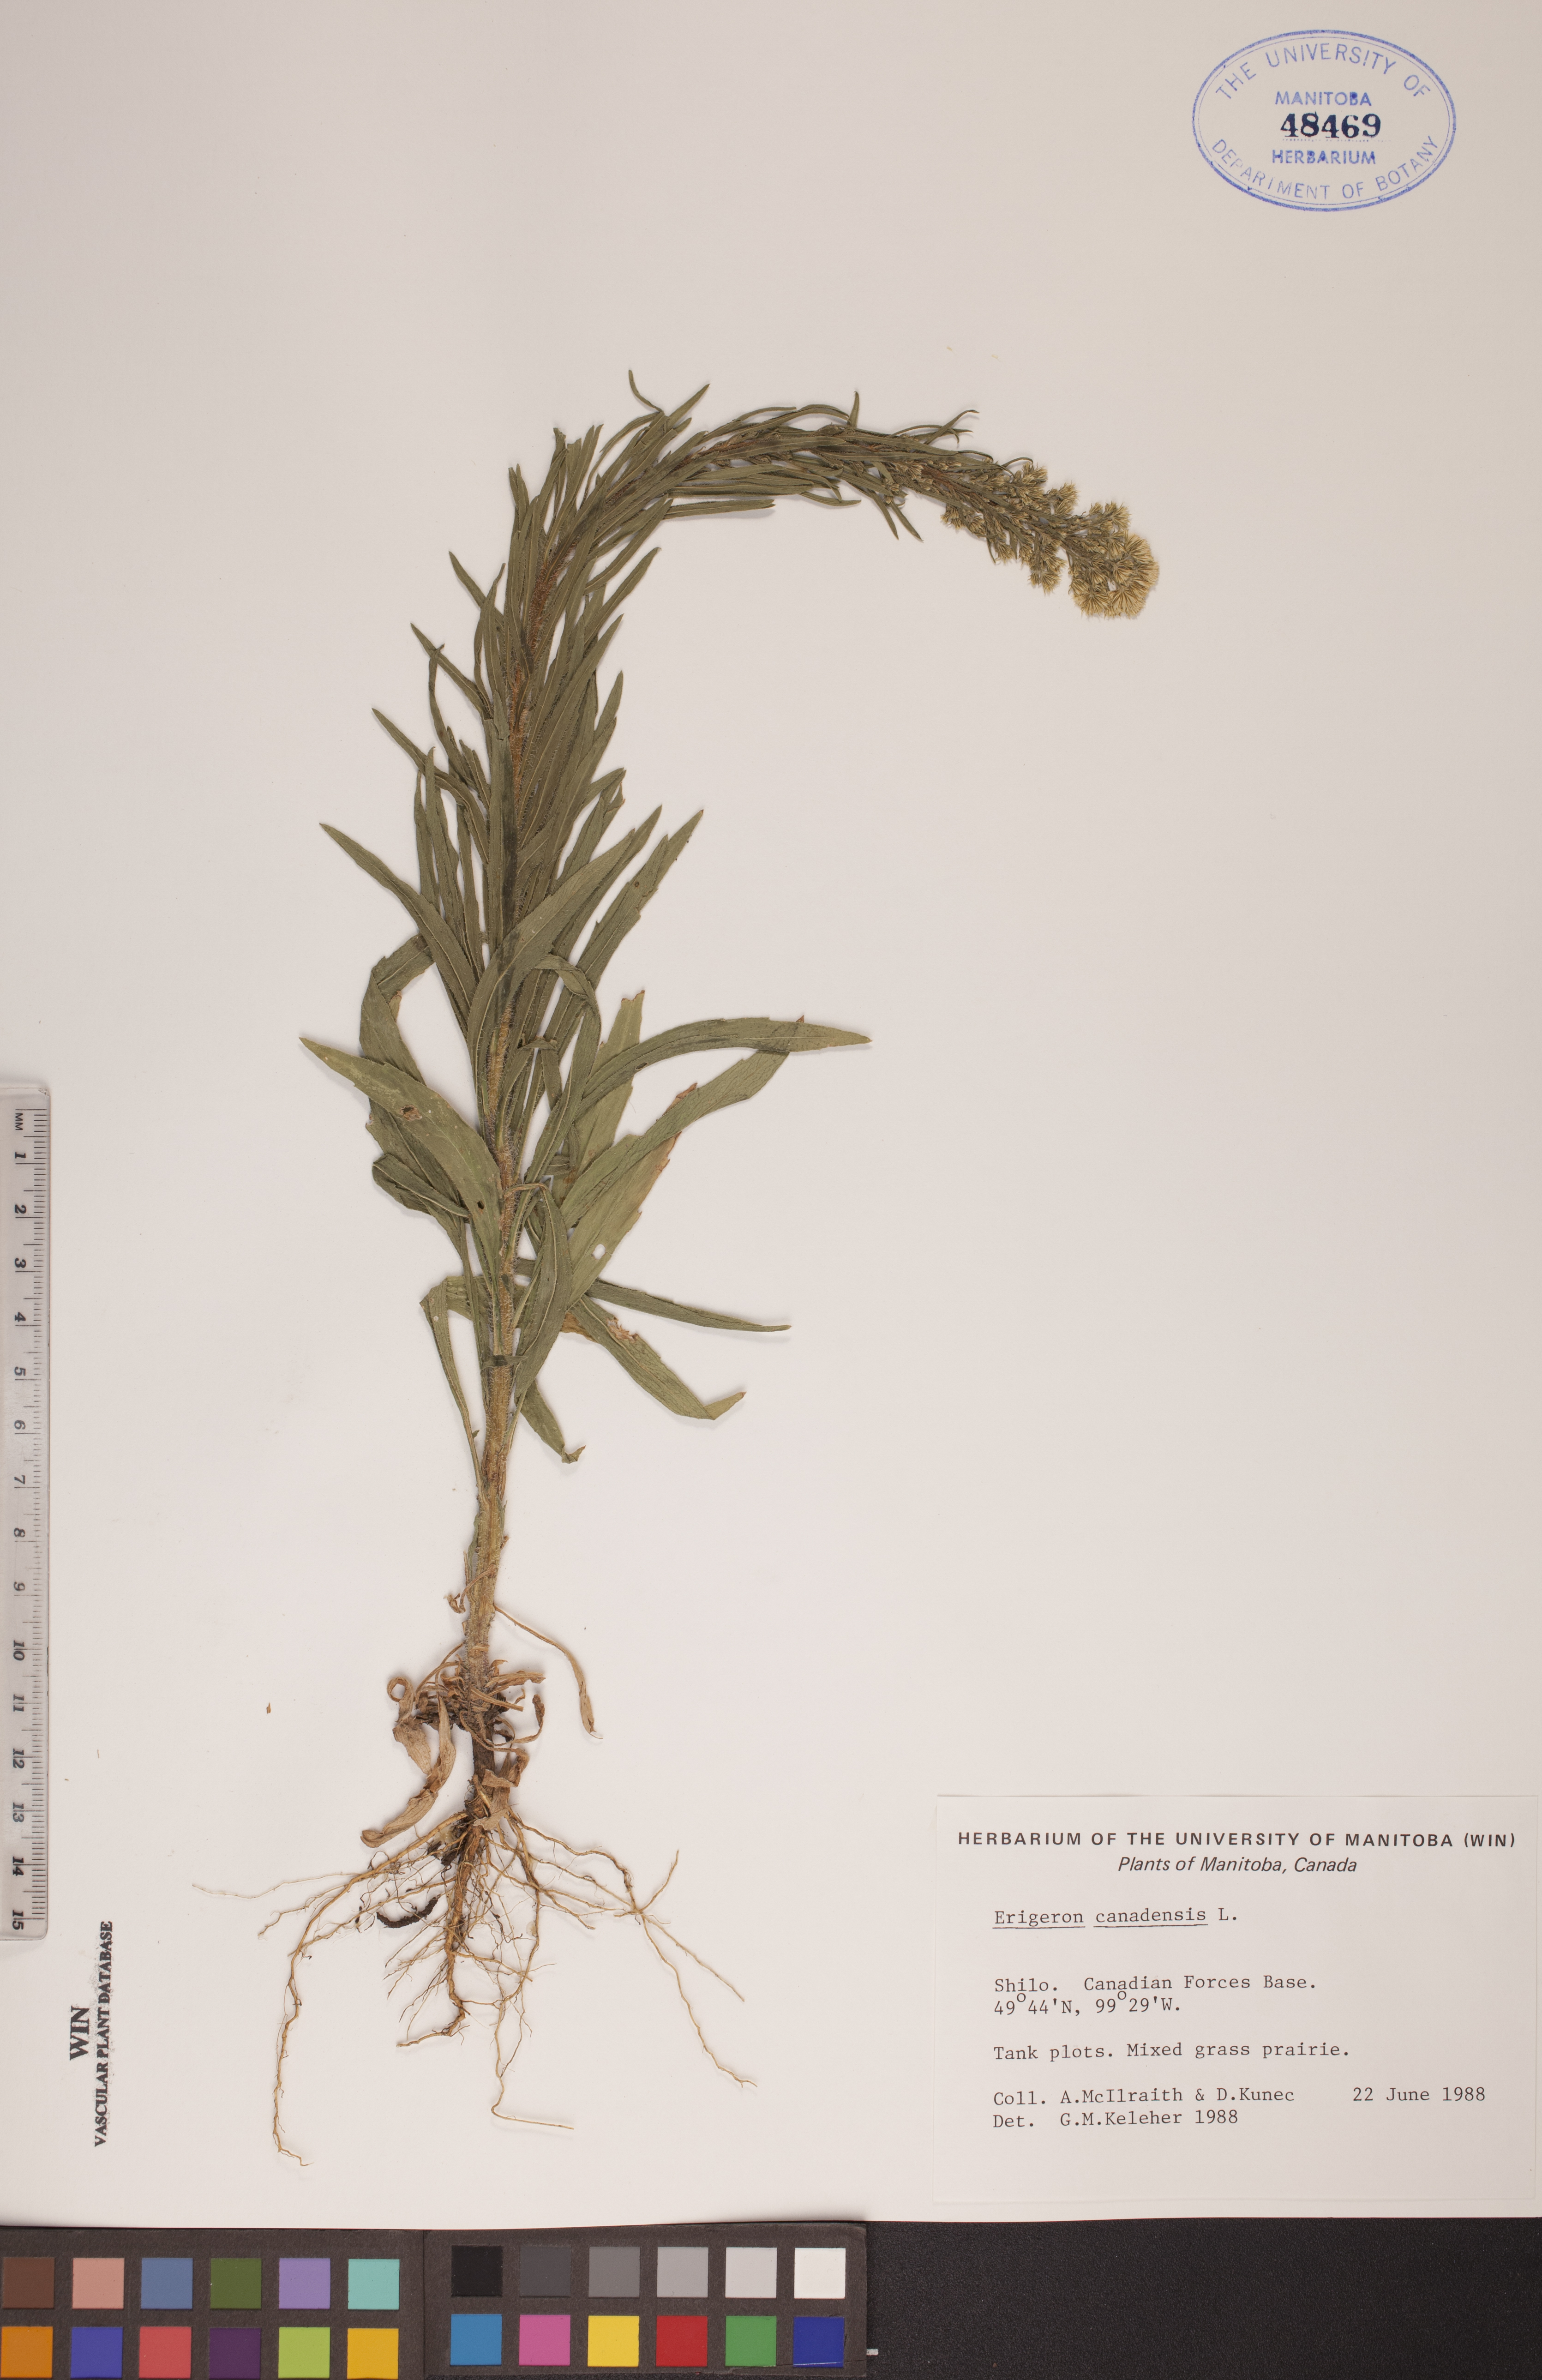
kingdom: Plantae
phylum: Tracheophyta
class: Magnoliopsida
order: Asterales
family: Asteraceae
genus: Erigeron
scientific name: Erigeron canadensis
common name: Canadian fleabane
